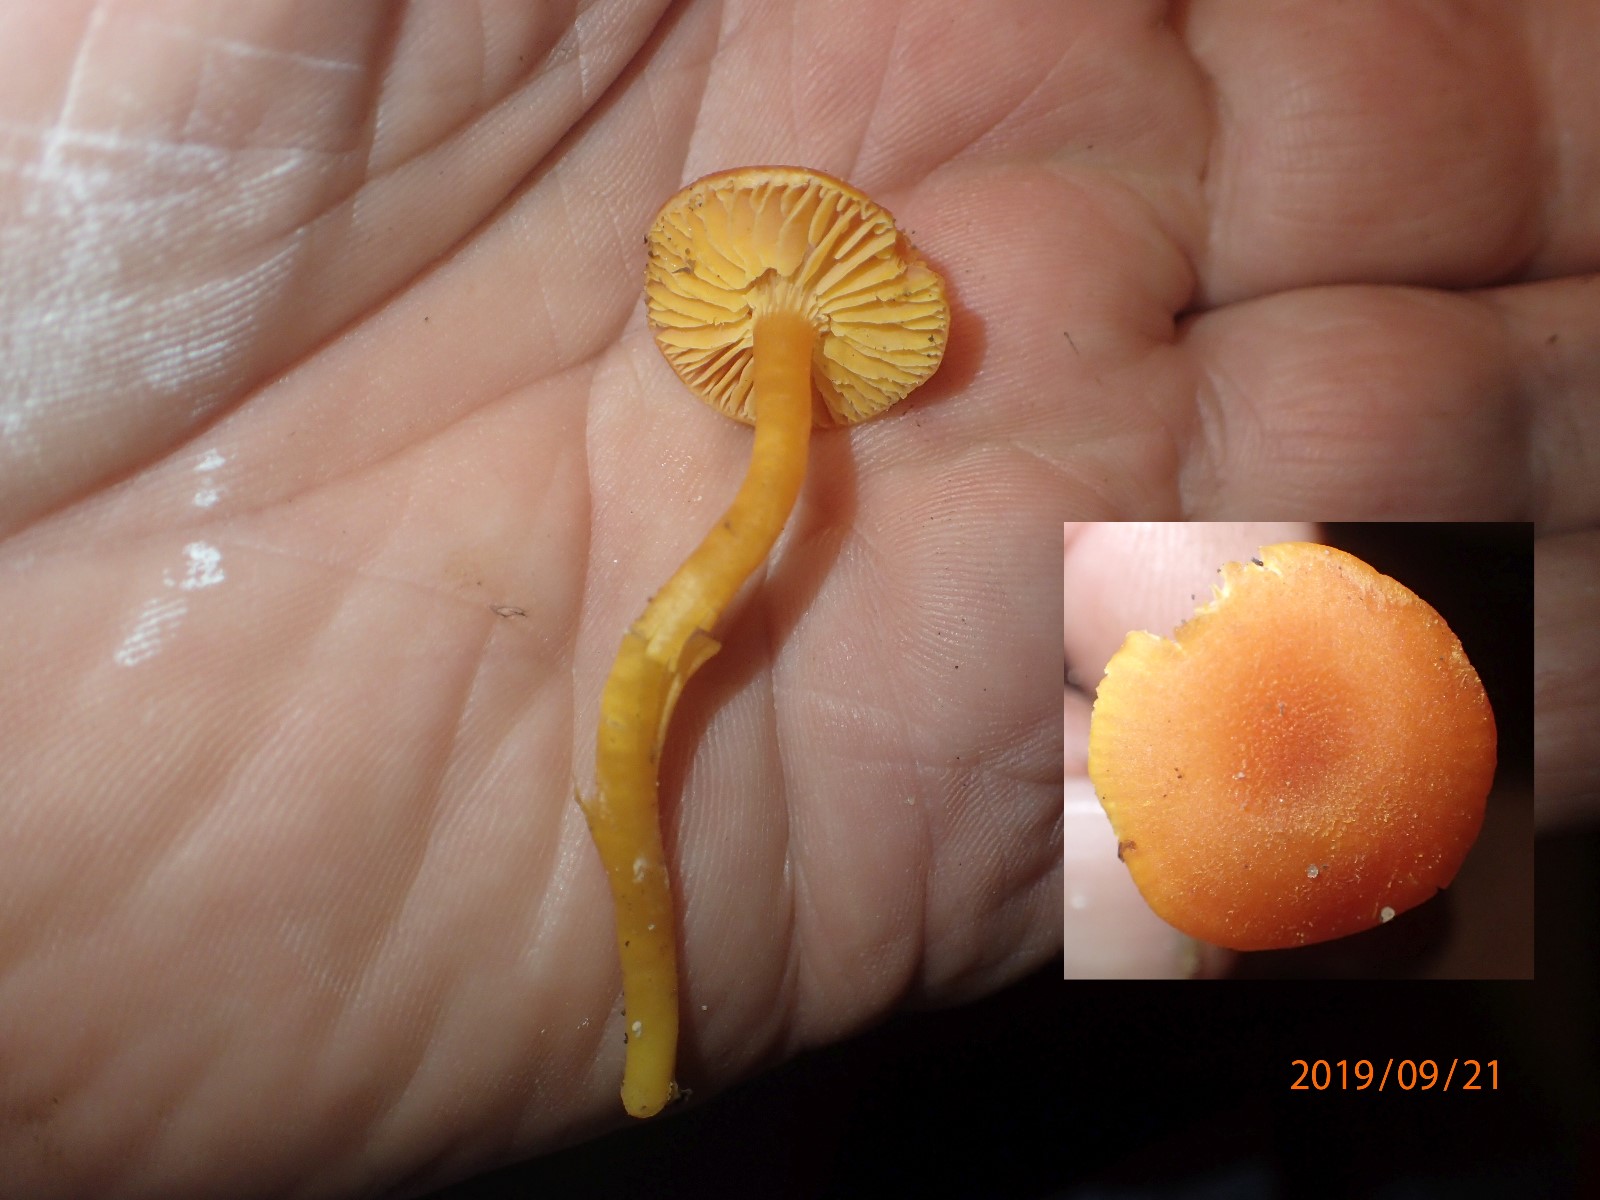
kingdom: Fungi
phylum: Basidiomycota
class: Agaricomycetes
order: Agaricales
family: Hygrophoraceae
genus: Hygrocybe
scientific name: Hygrocybe miniata
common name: mønje-vokshat
